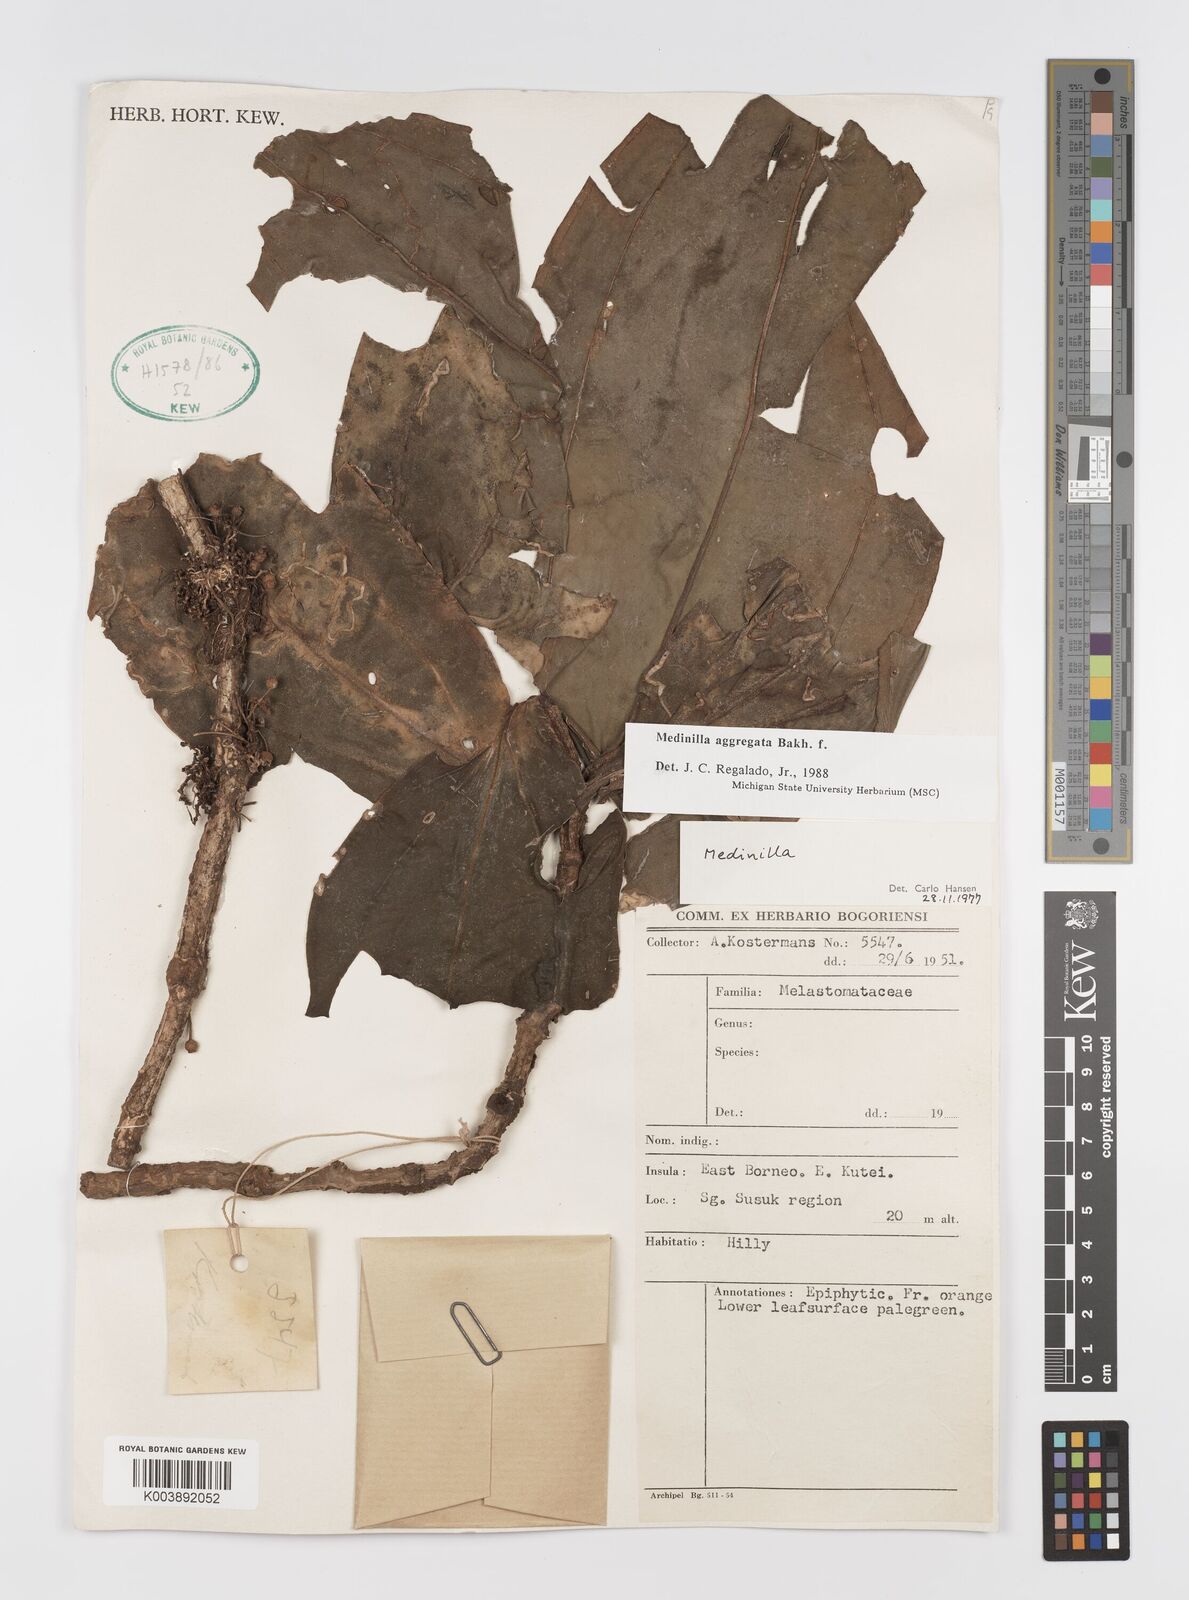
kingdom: Plantae
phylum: Tracheophyta
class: Magnoliopsida
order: Myrtales
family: Melastomataceae
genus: Medinilla
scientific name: Medinilla aggregata
